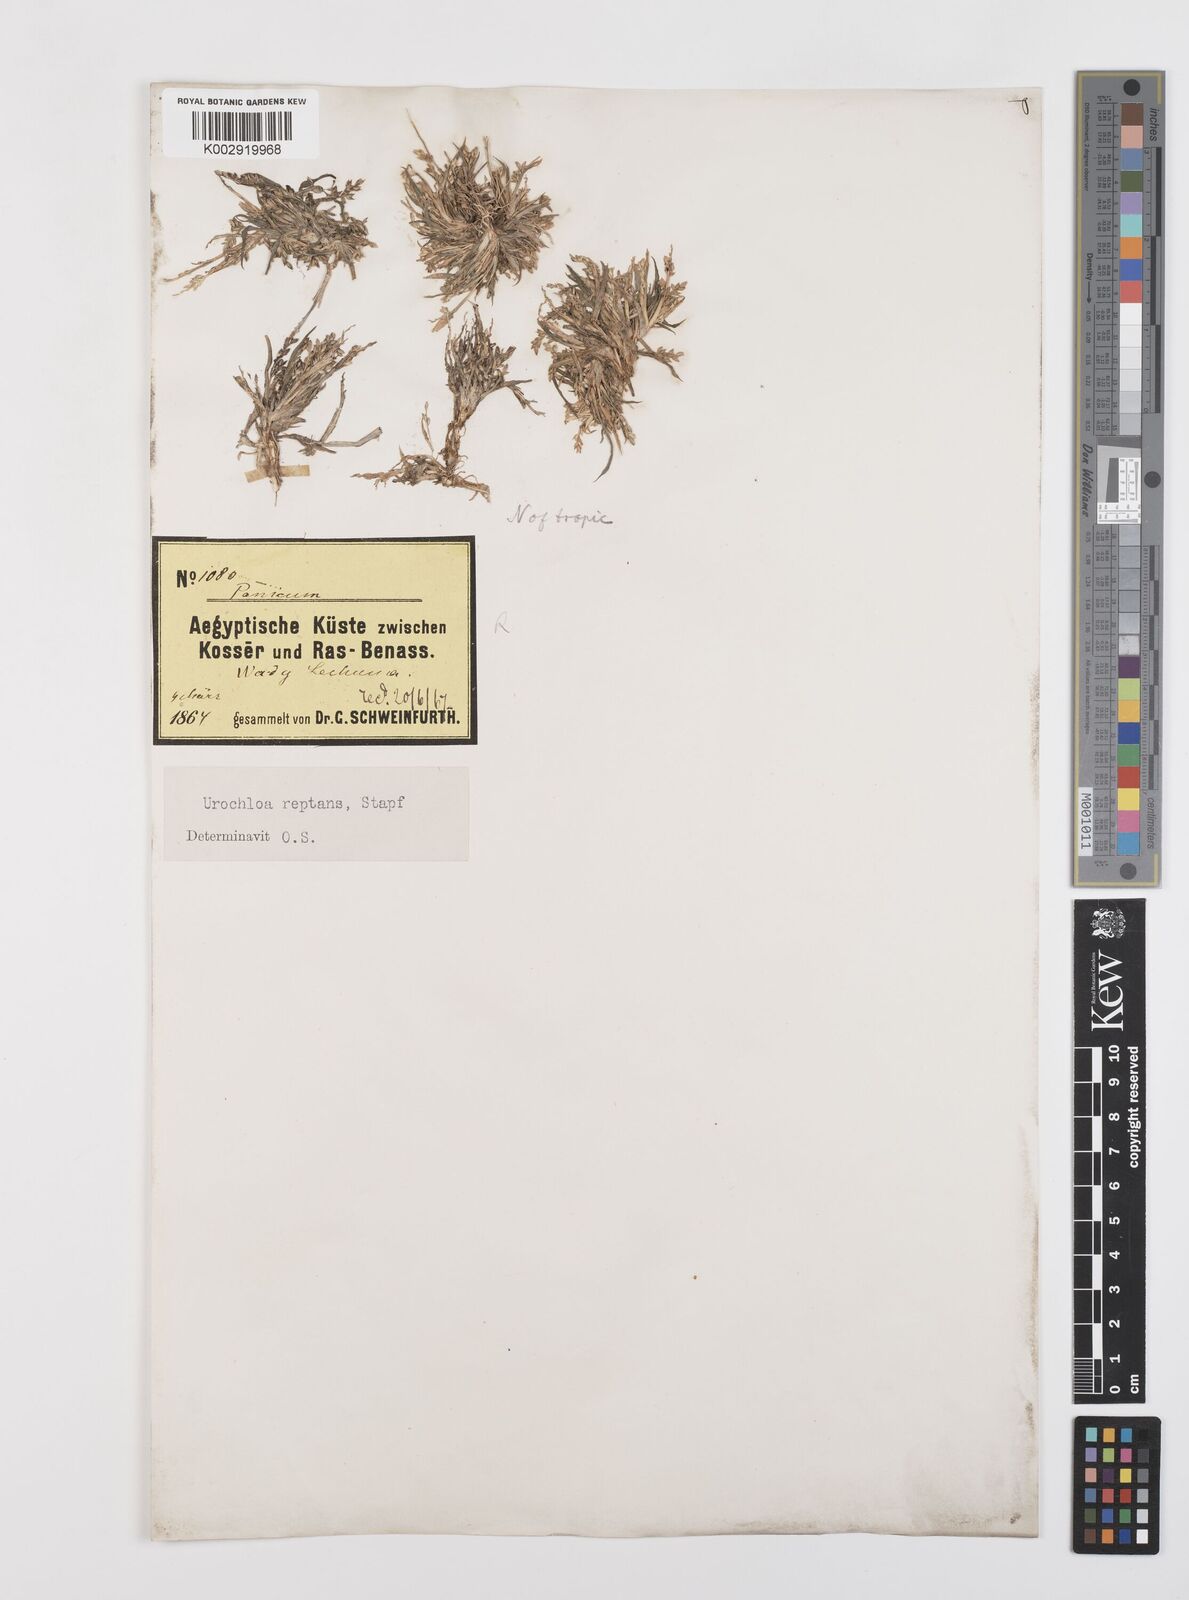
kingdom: Plantae
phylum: Tracheophyta
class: Liliopsida
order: Poales
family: Poaceae
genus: Urochloa
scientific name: Urochloa reptans
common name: Sprawling signalgrass
